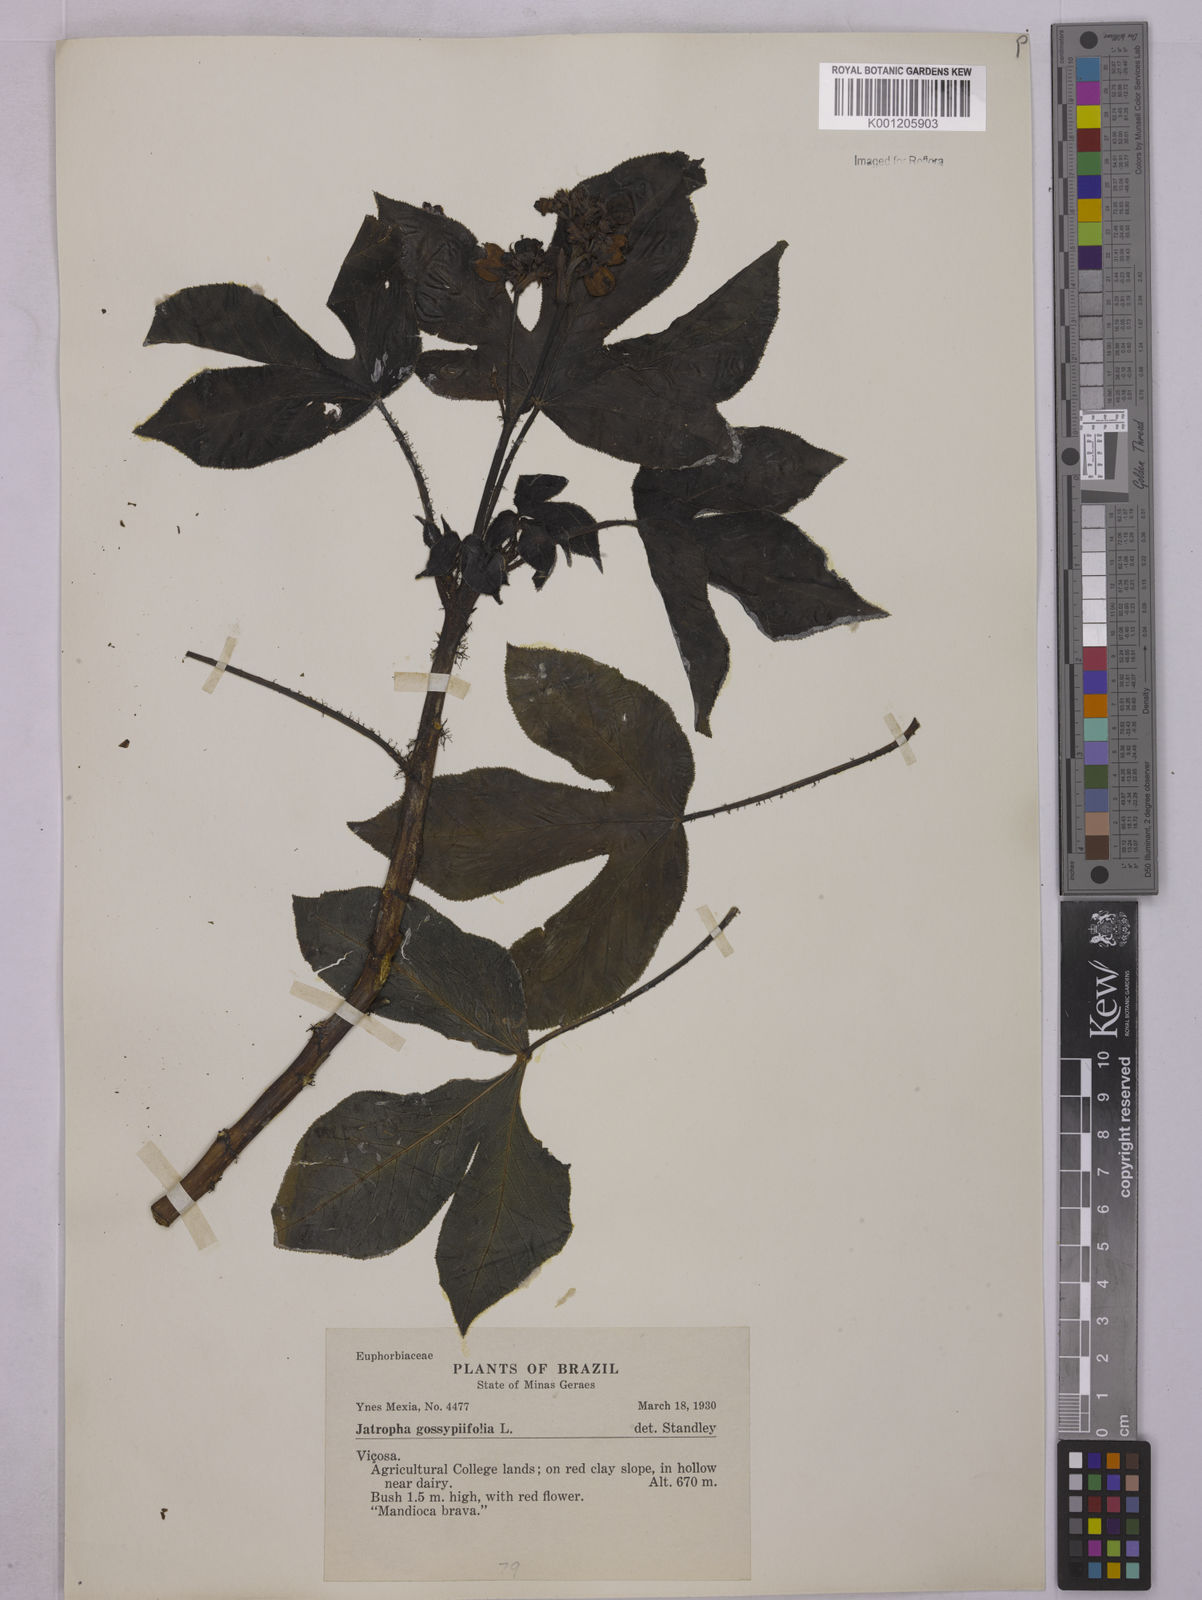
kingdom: Plantae
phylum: Tracheophyta
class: Magnoliopsida
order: Malpighiales
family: Euphorbiaceae
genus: Jatropha
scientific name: Jatropha gossypiifolia
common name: Bellyache bush
